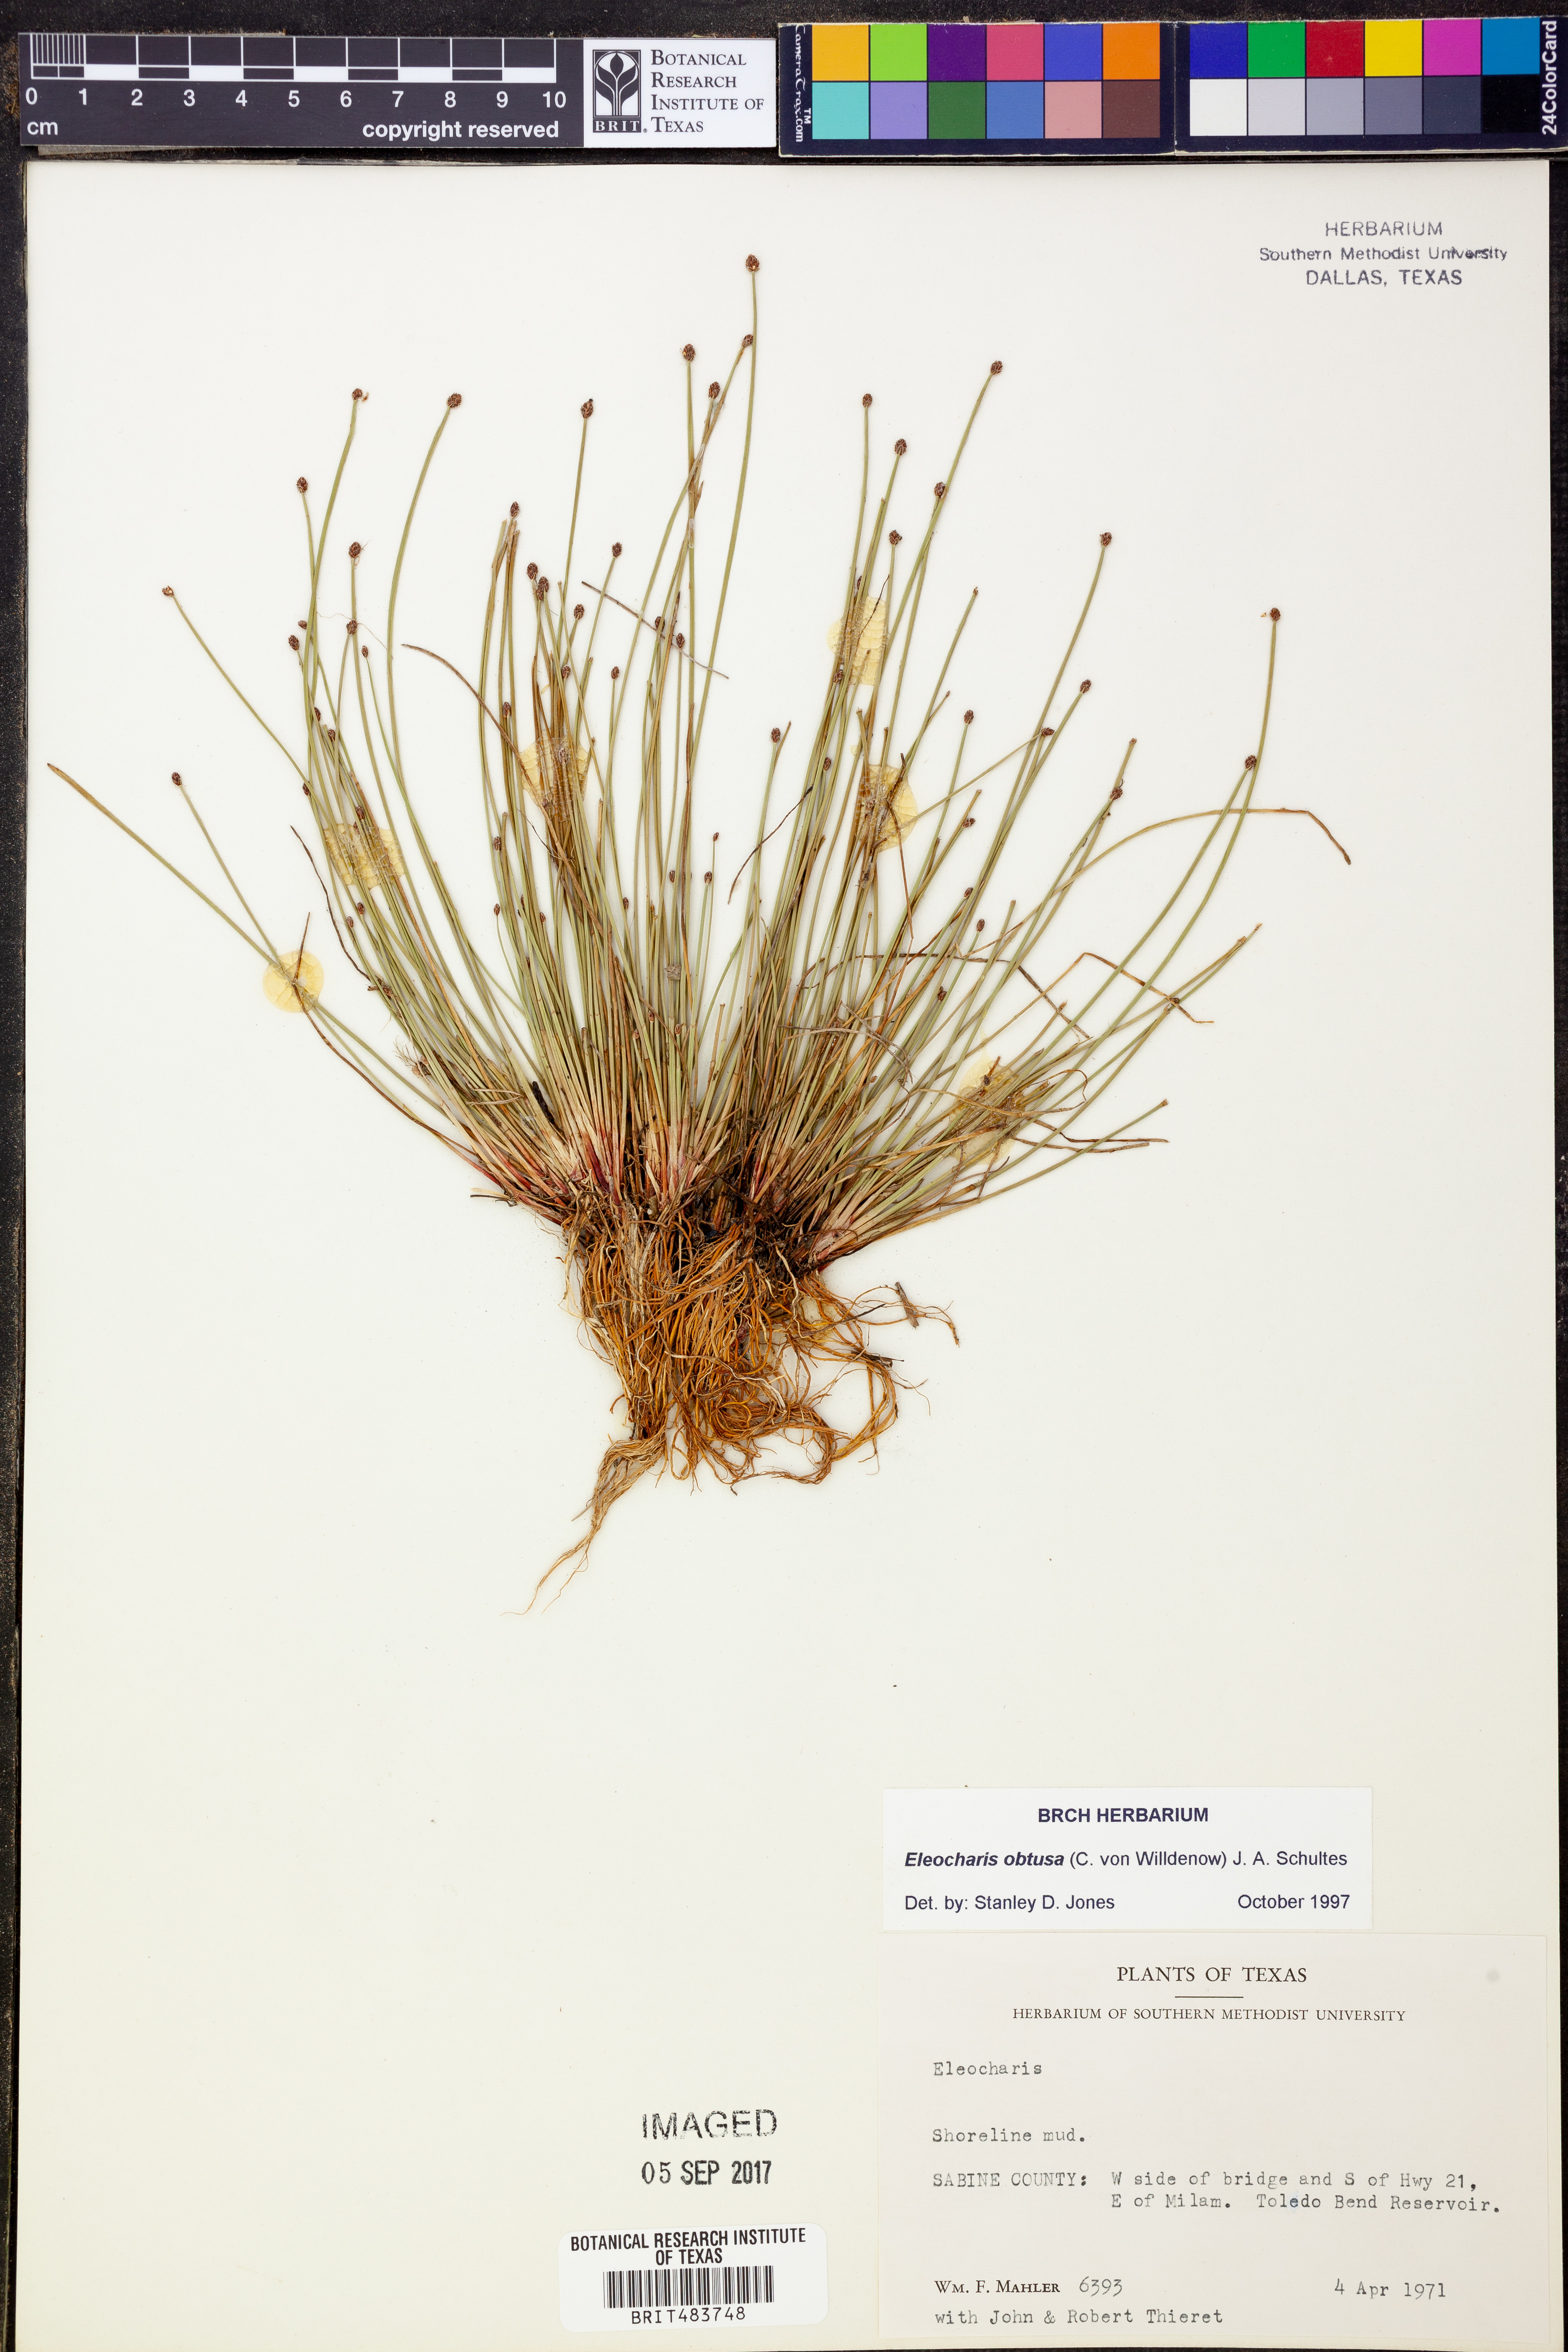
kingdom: Plantae
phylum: Tracheophyta
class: Liliopsida
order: Poales
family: Cyperaceae
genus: Eleocharis
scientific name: Eleocharis obtusa
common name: Blunt spikerush
